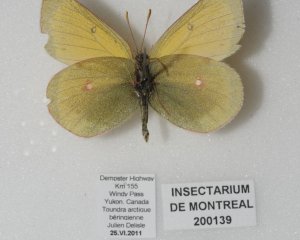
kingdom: Animalia
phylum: Arthropoda
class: Insecta
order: Lepidoptera
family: Pieridae
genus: Colias
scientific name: Colias canadensis
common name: Canadian Sulphur
